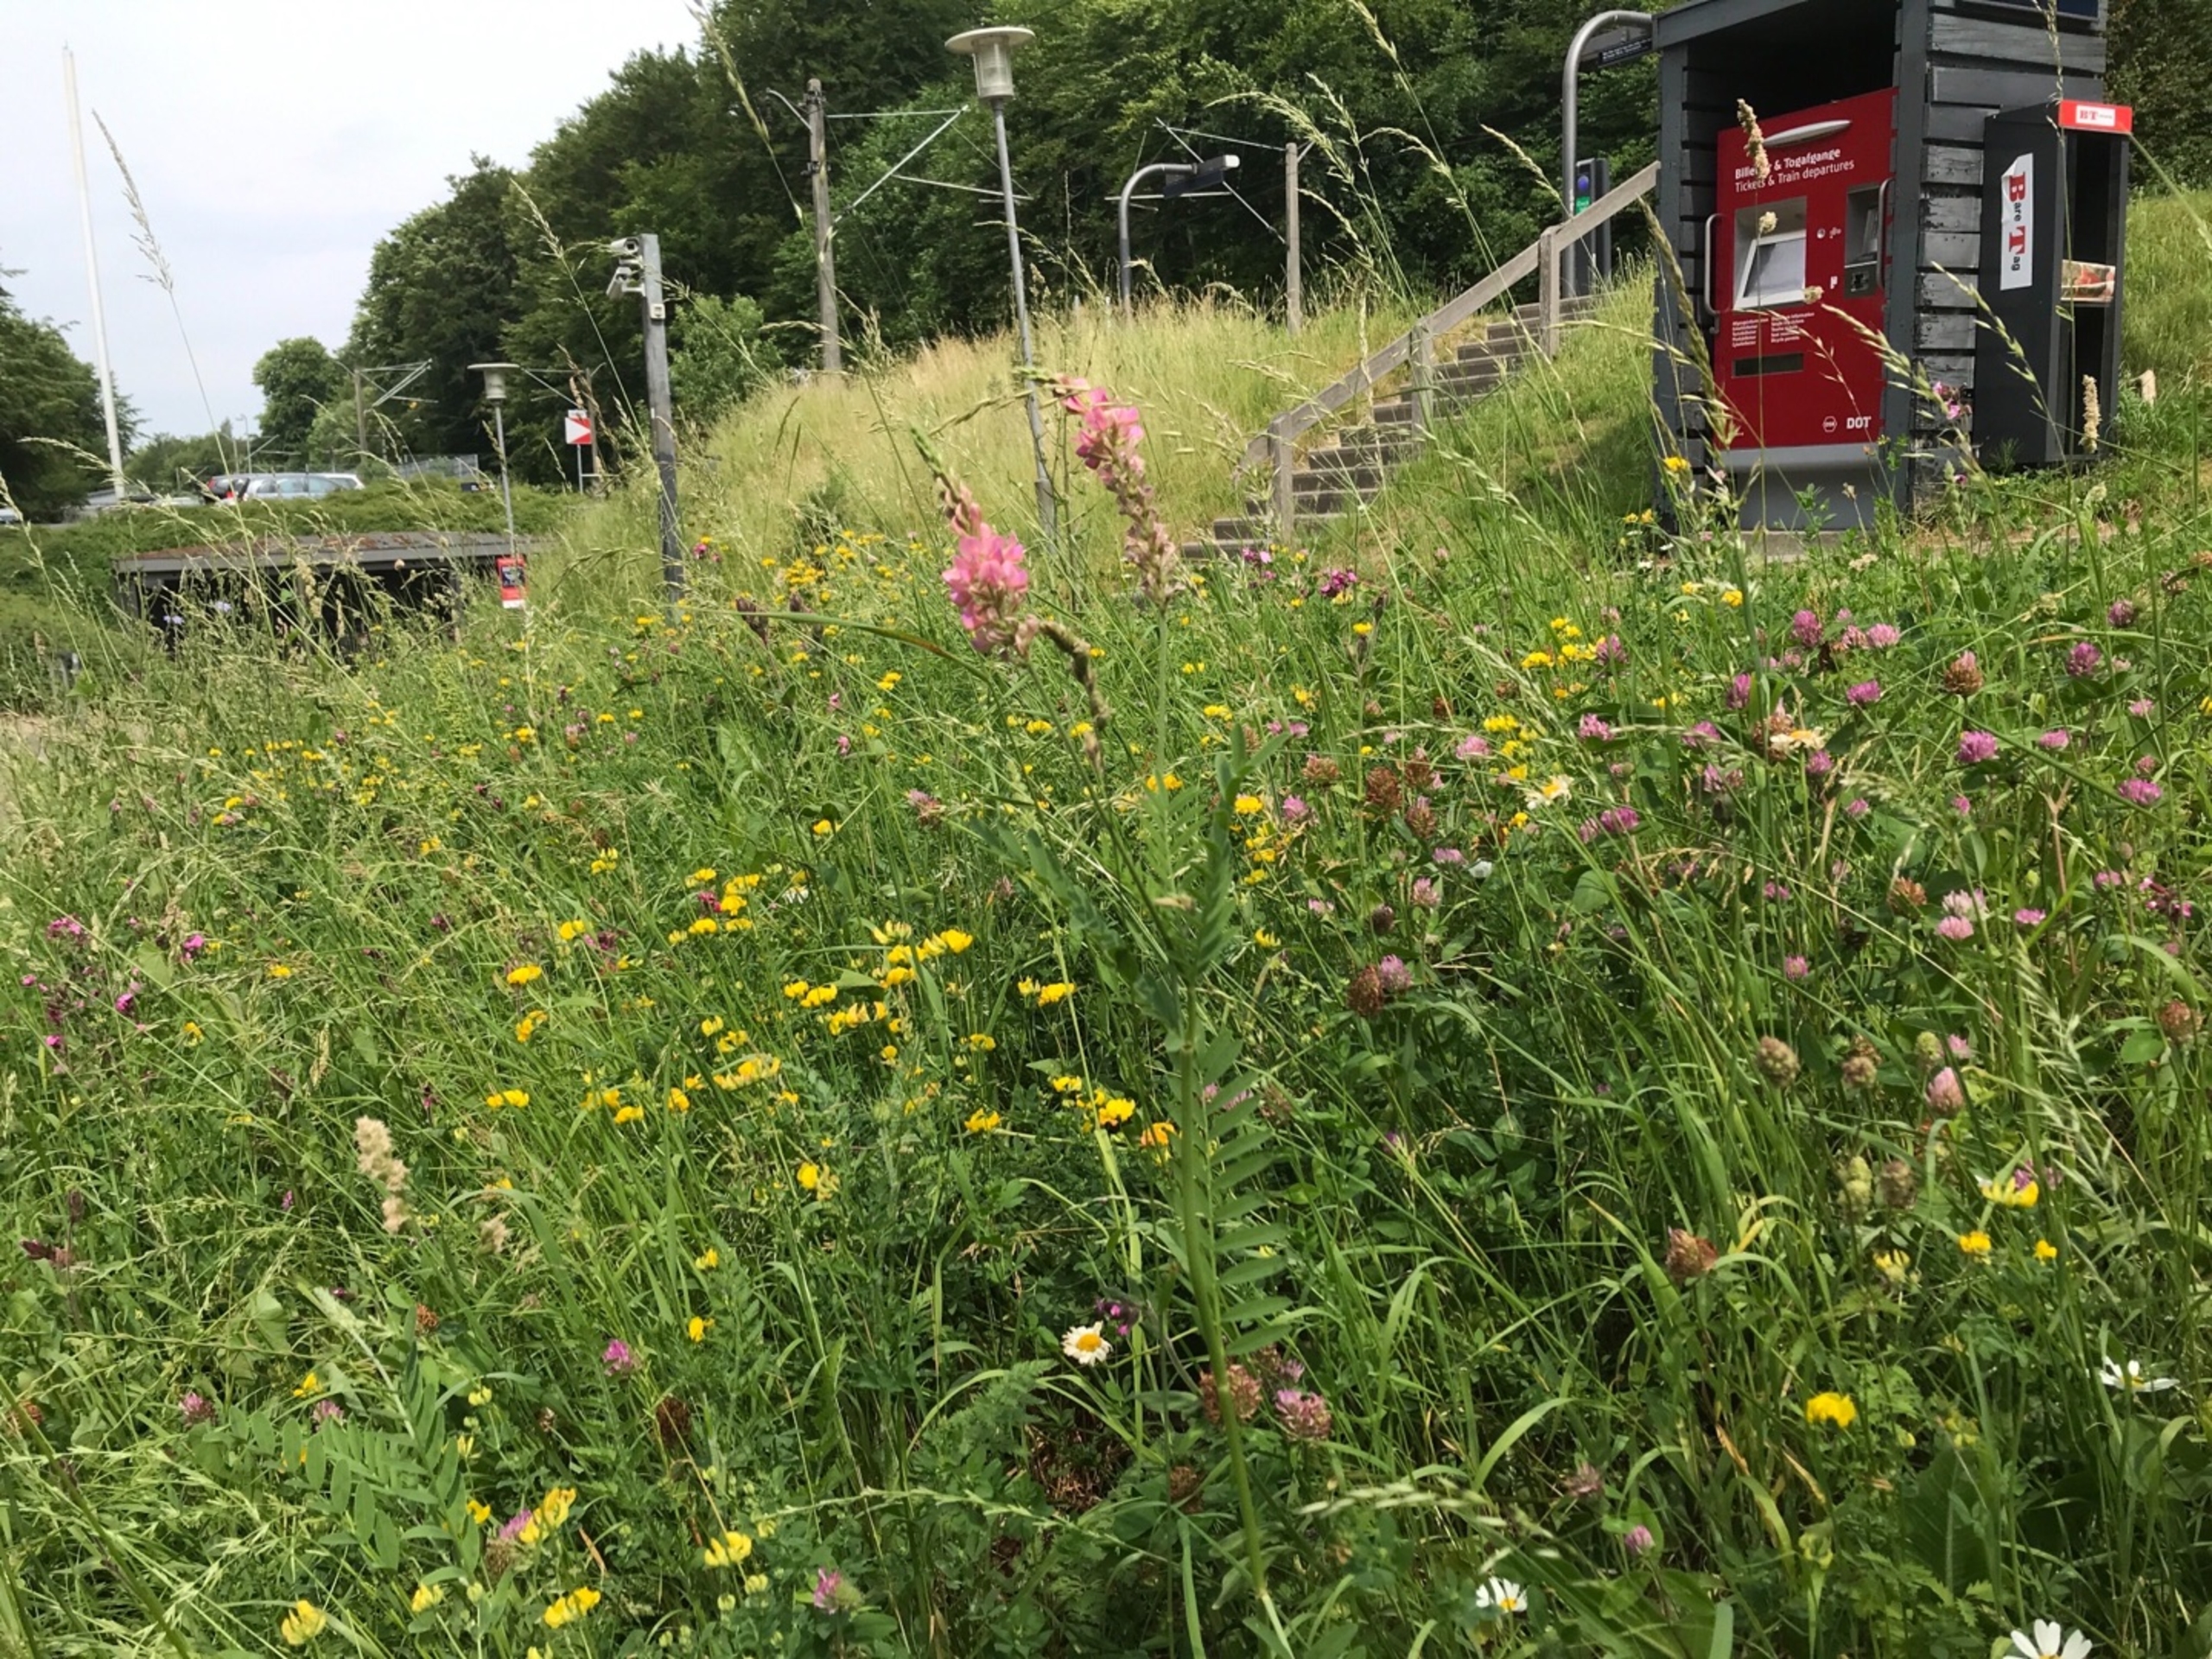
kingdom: Plantae
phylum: Tracheophyta
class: Magnoliopsida
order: Fabales
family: Fabaceae
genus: Onobrychis
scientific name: Onobrychis viciifolia
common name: Esparsette
